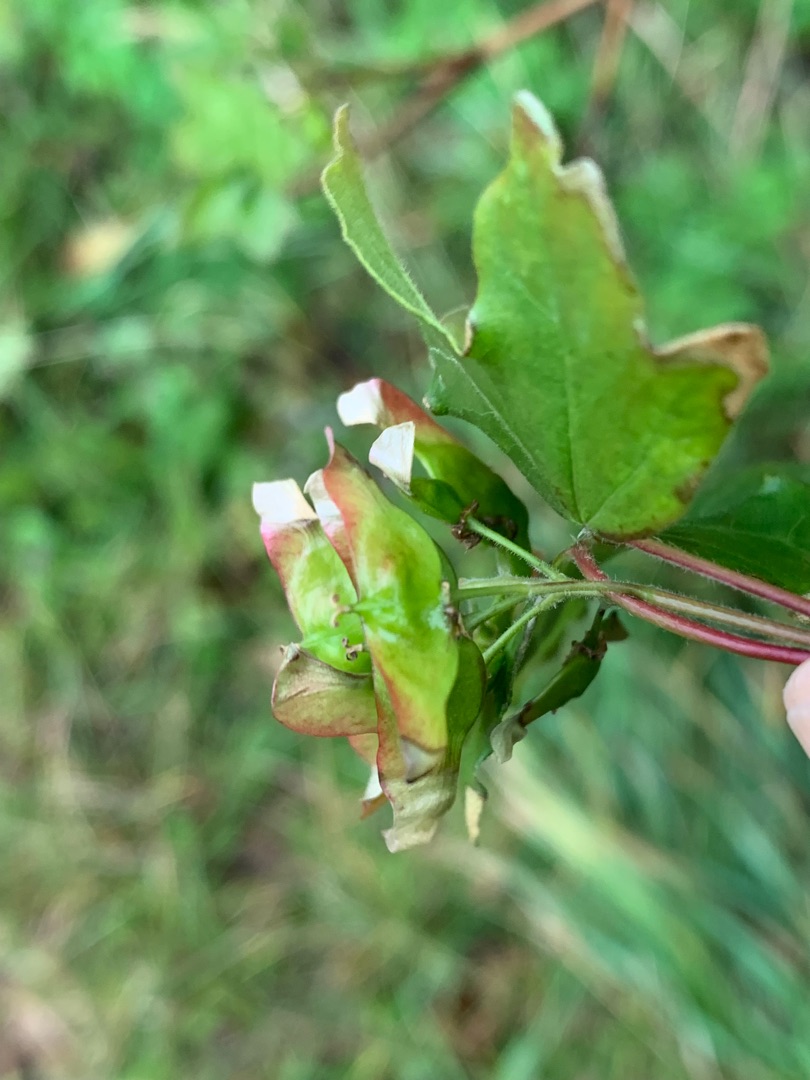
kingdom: Plantae
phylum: Tracheophyta
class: Magnoliopsida
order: Sapindales
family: Sapindaceae
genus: Acer
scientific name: Acer campestre
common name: Navr
